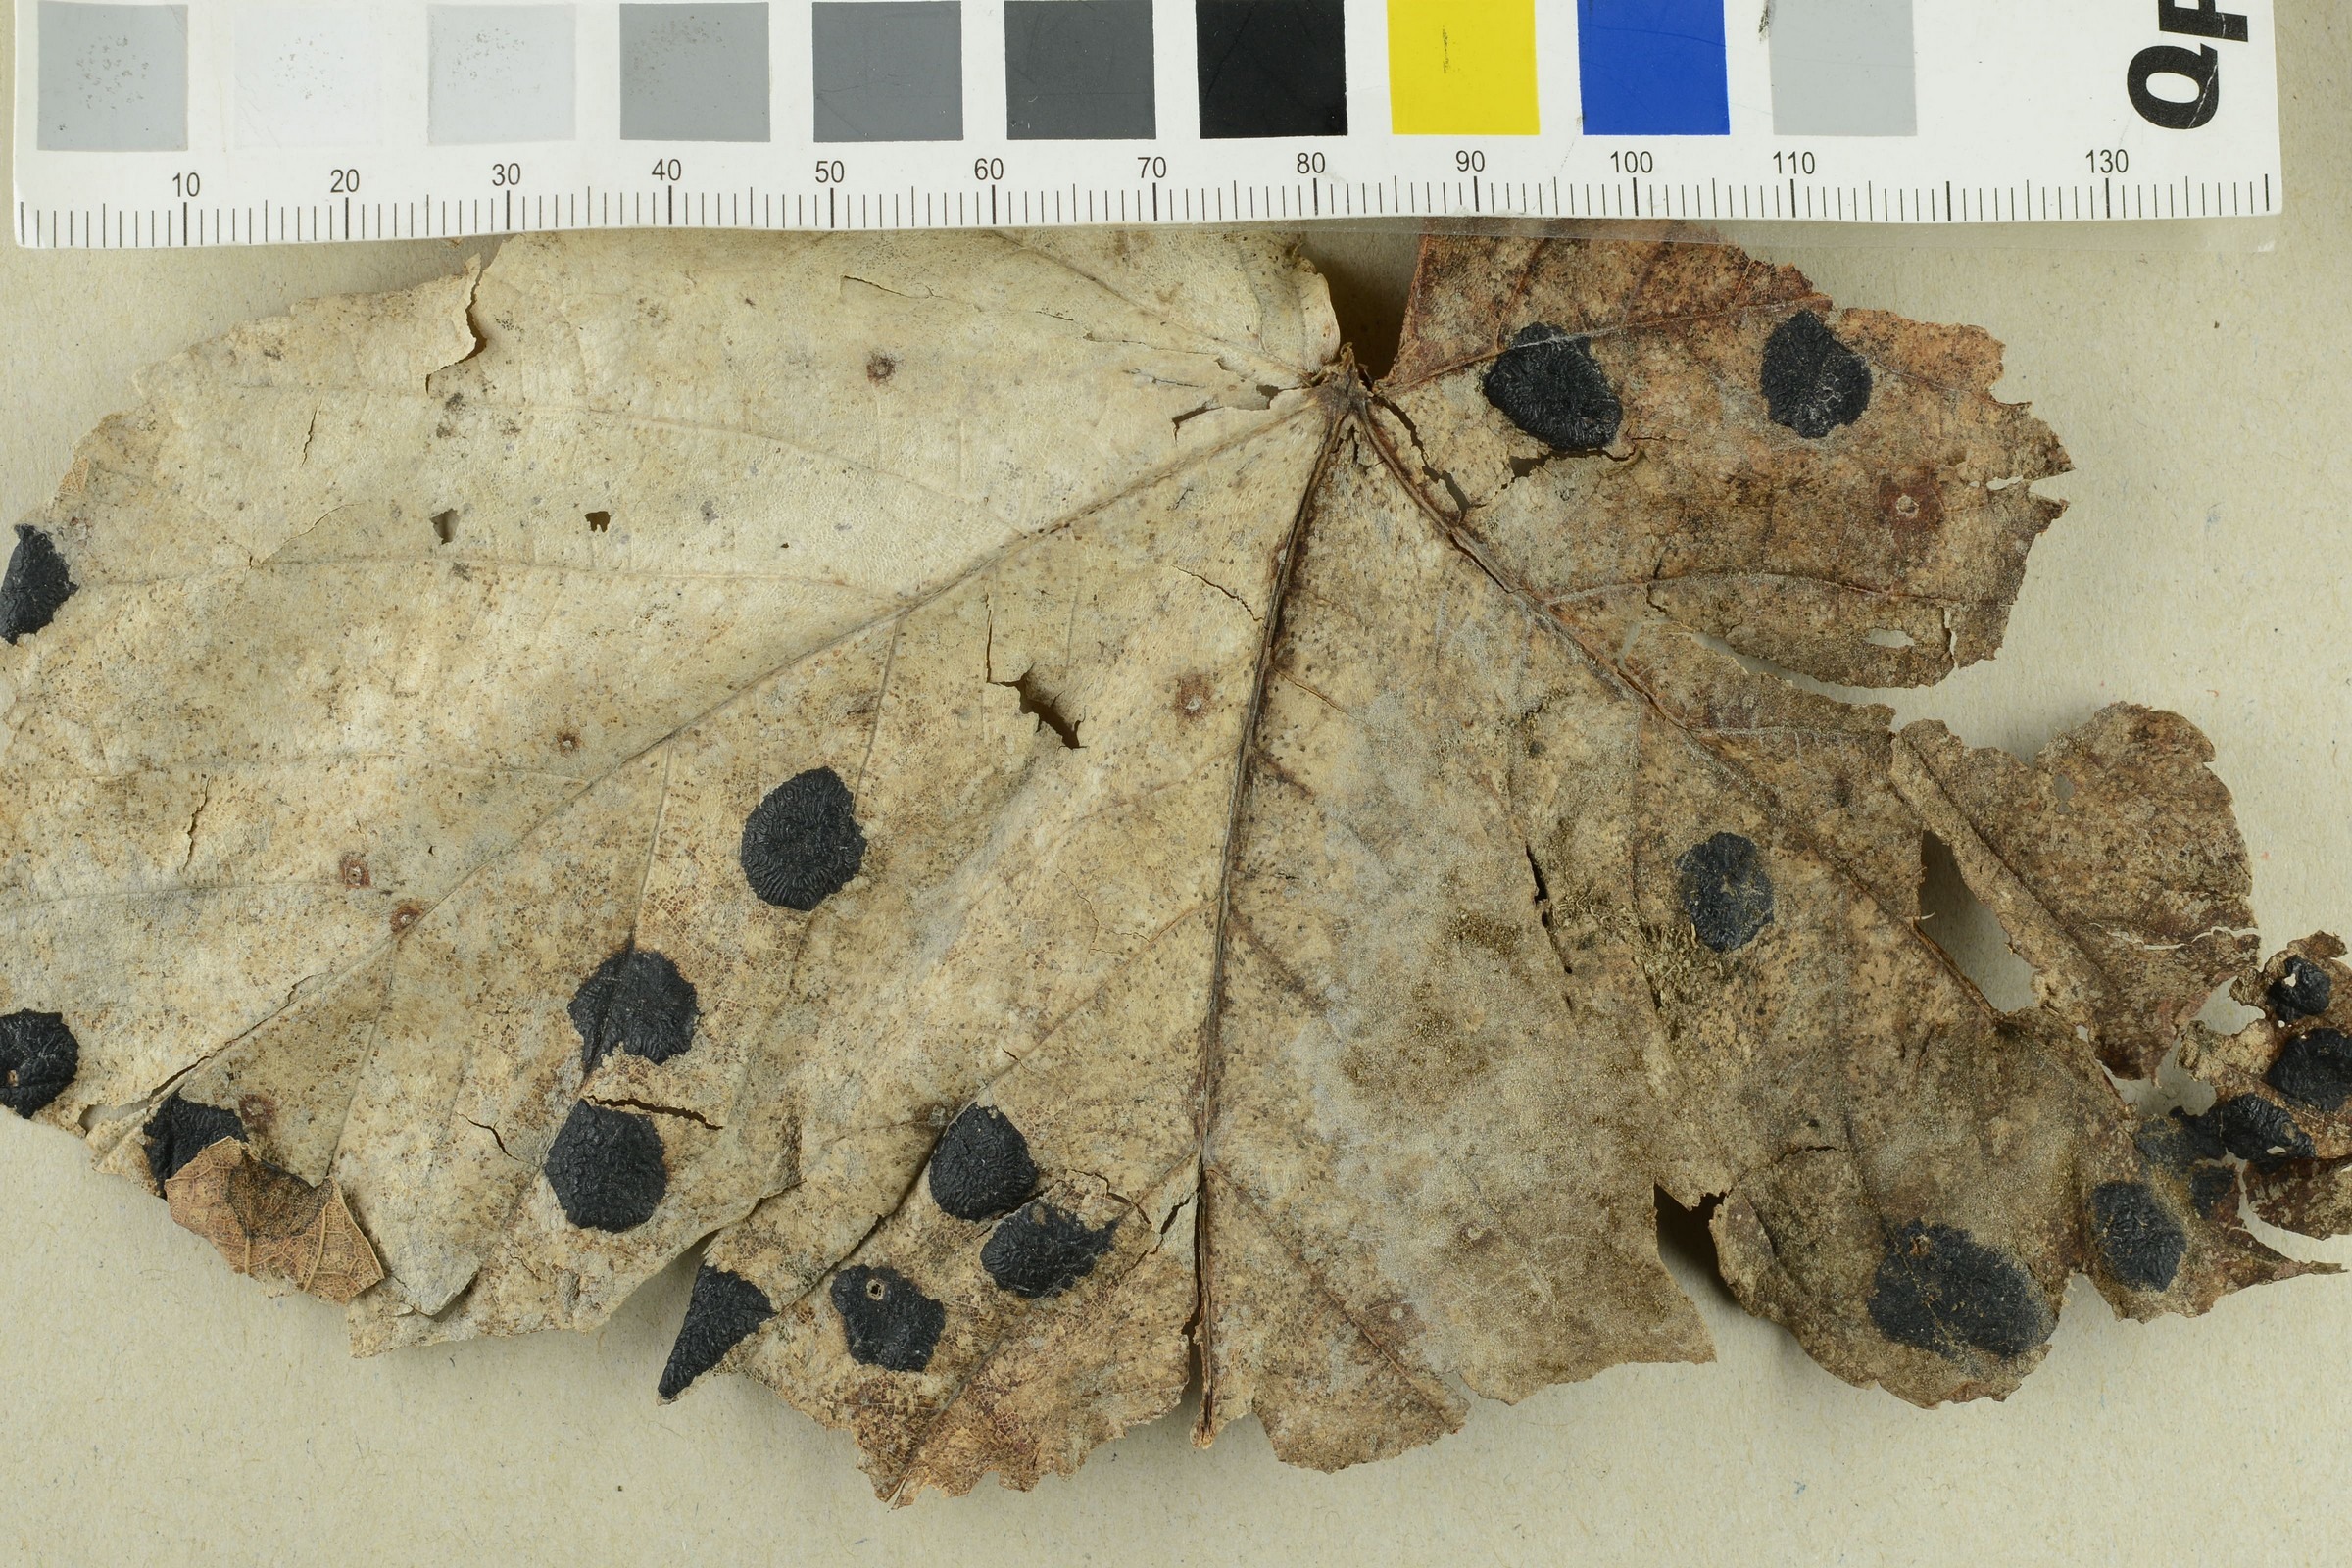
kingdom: Fungi
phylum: Ascomycota
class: Leotiomycetes
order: Rhytismatales
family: Rhytismataceae
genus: Rhytisma
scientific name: Rhytisma acerinum
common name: European tar spot
